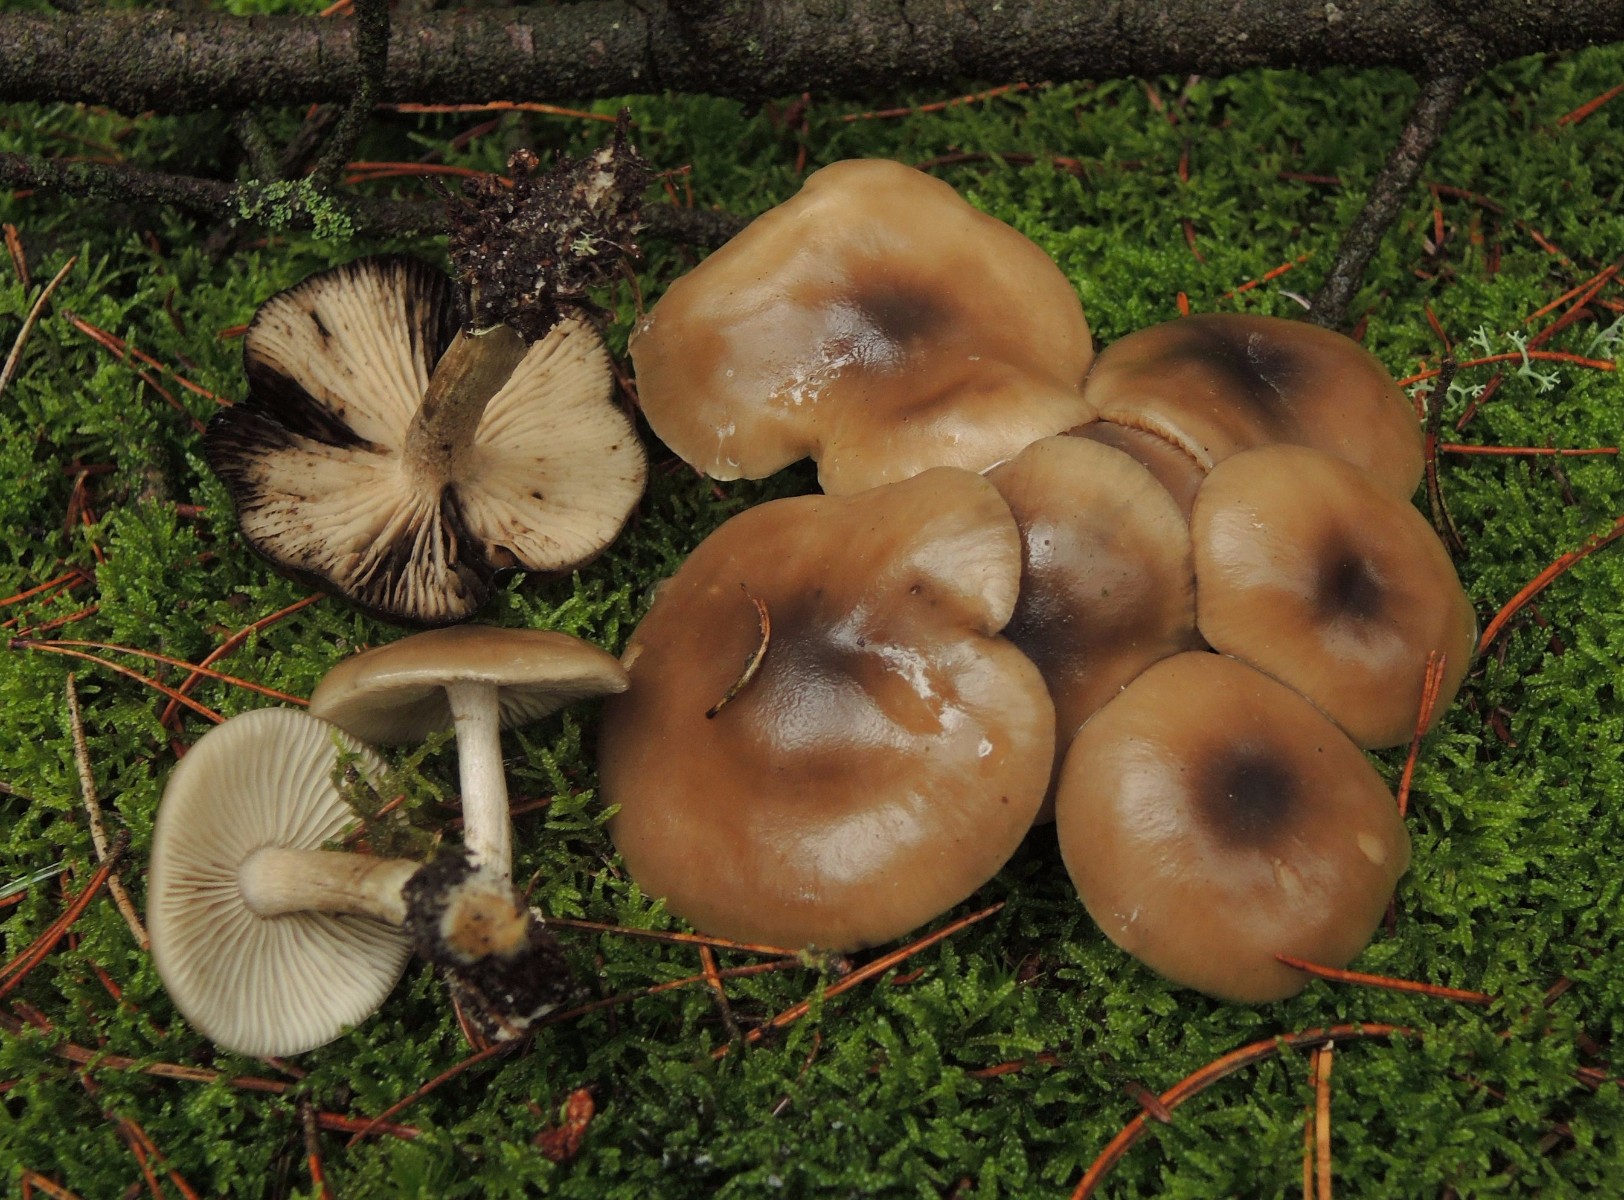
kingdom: Fungi
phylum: Basidiomycota
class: Agaricomycetes
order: Agaricales
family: Lyophyllaceae
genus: Lyophyllum
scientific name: Lyophyllum semitale
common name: sværtende gråblad
